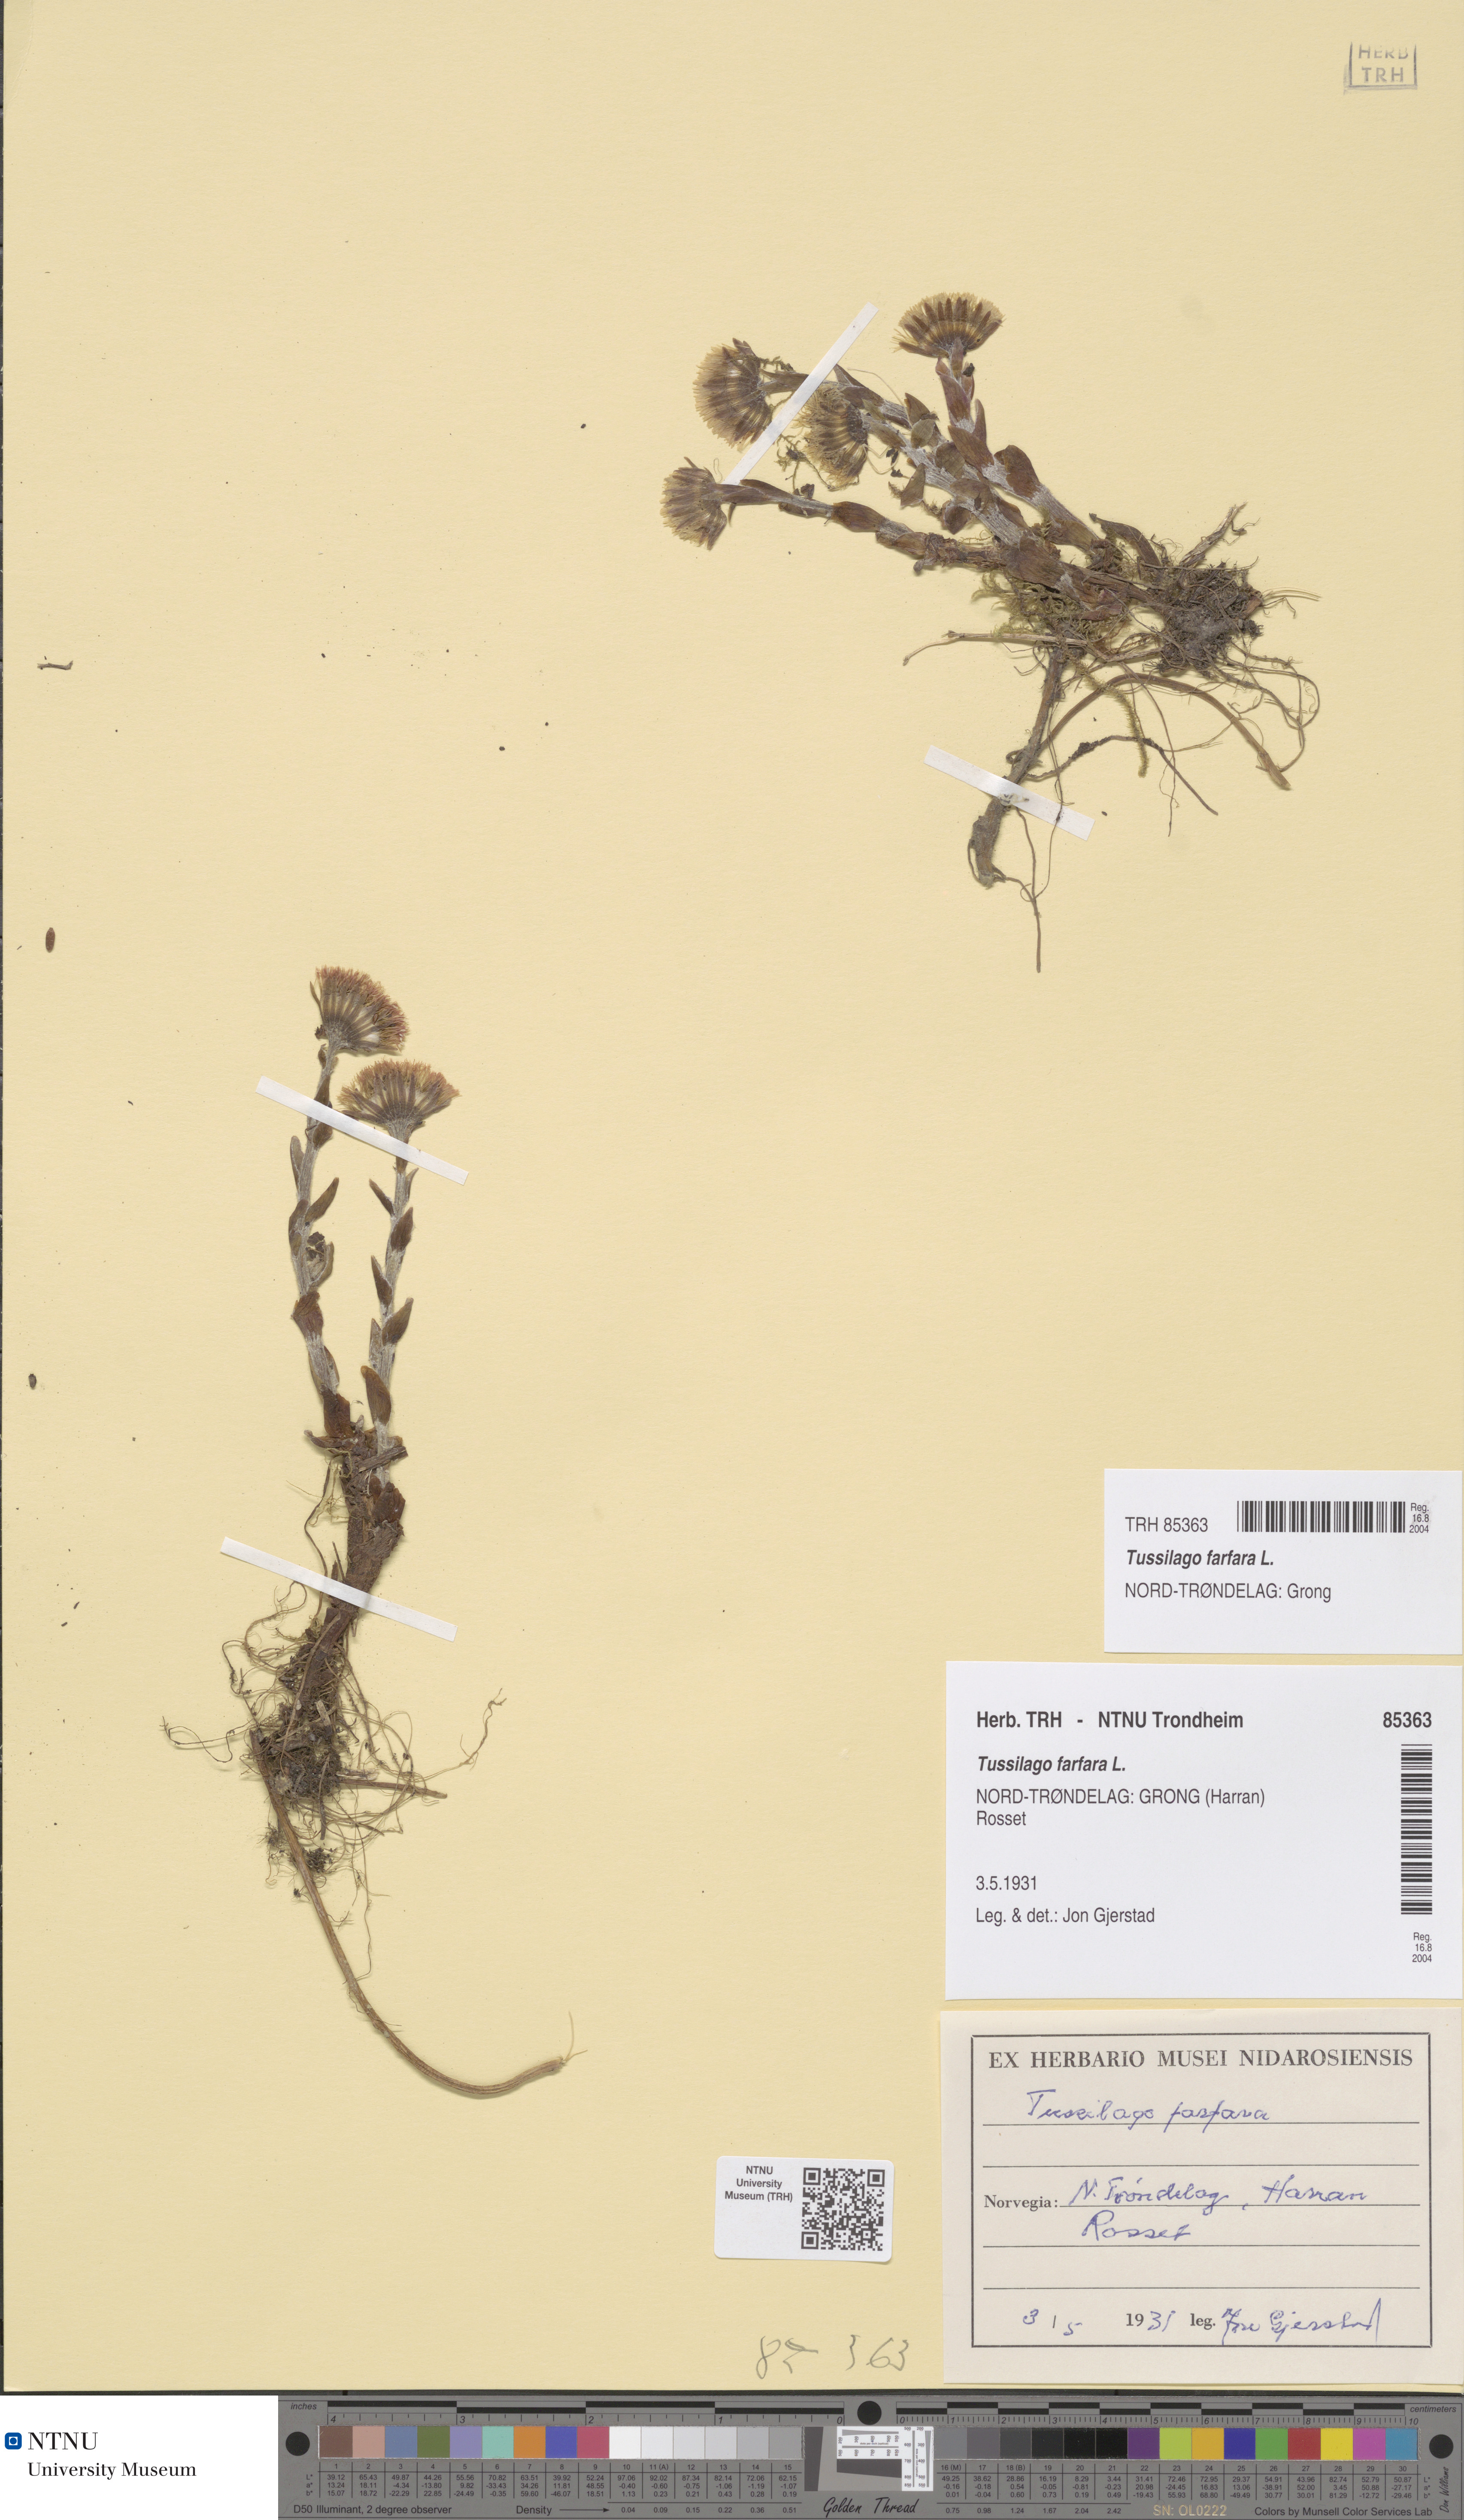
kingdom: Plantae
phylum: Tracheophyta
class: Magnoliopsida
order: Asterales
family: Asteraceae
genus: Tussilago
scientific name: Tussilago farfara
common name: Coltsfoot
